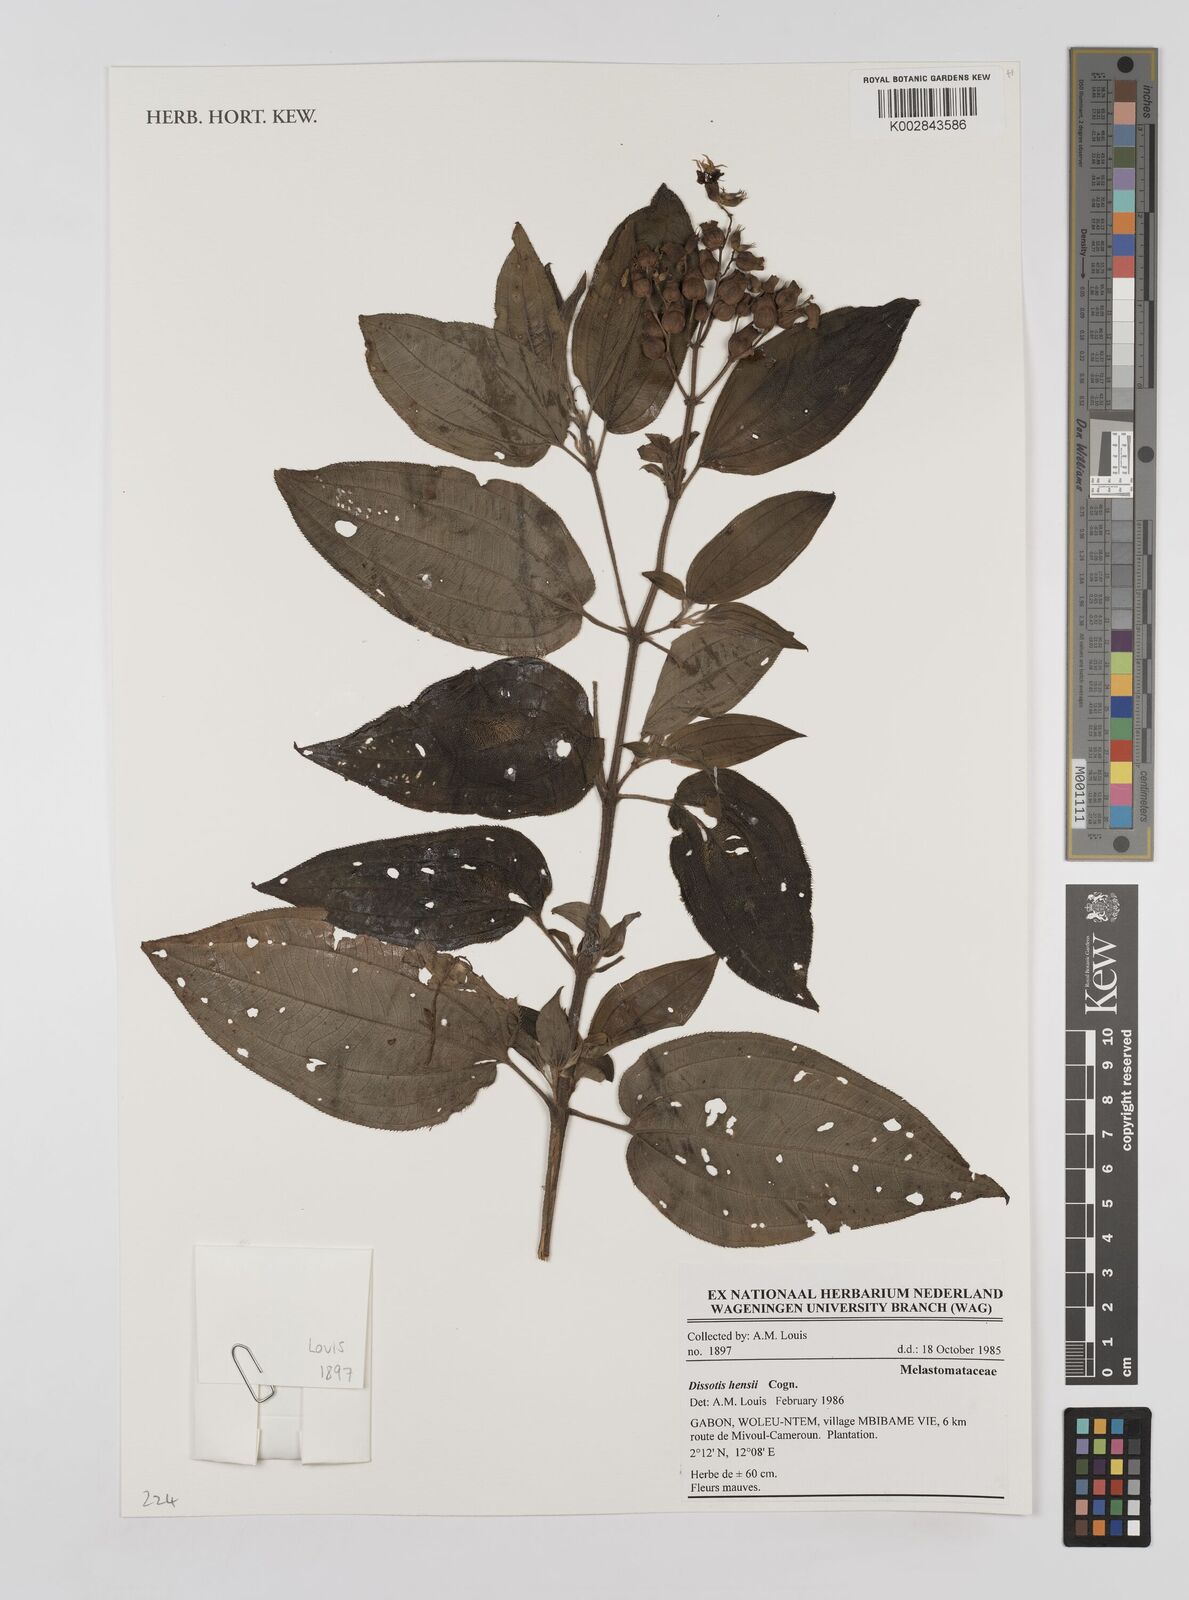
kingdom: Plantae
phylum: Tracheophyta
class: Magnoliopsida
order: Myrtales
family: Melastomataceae
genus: Dupineta
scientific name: Dupineta hensii
